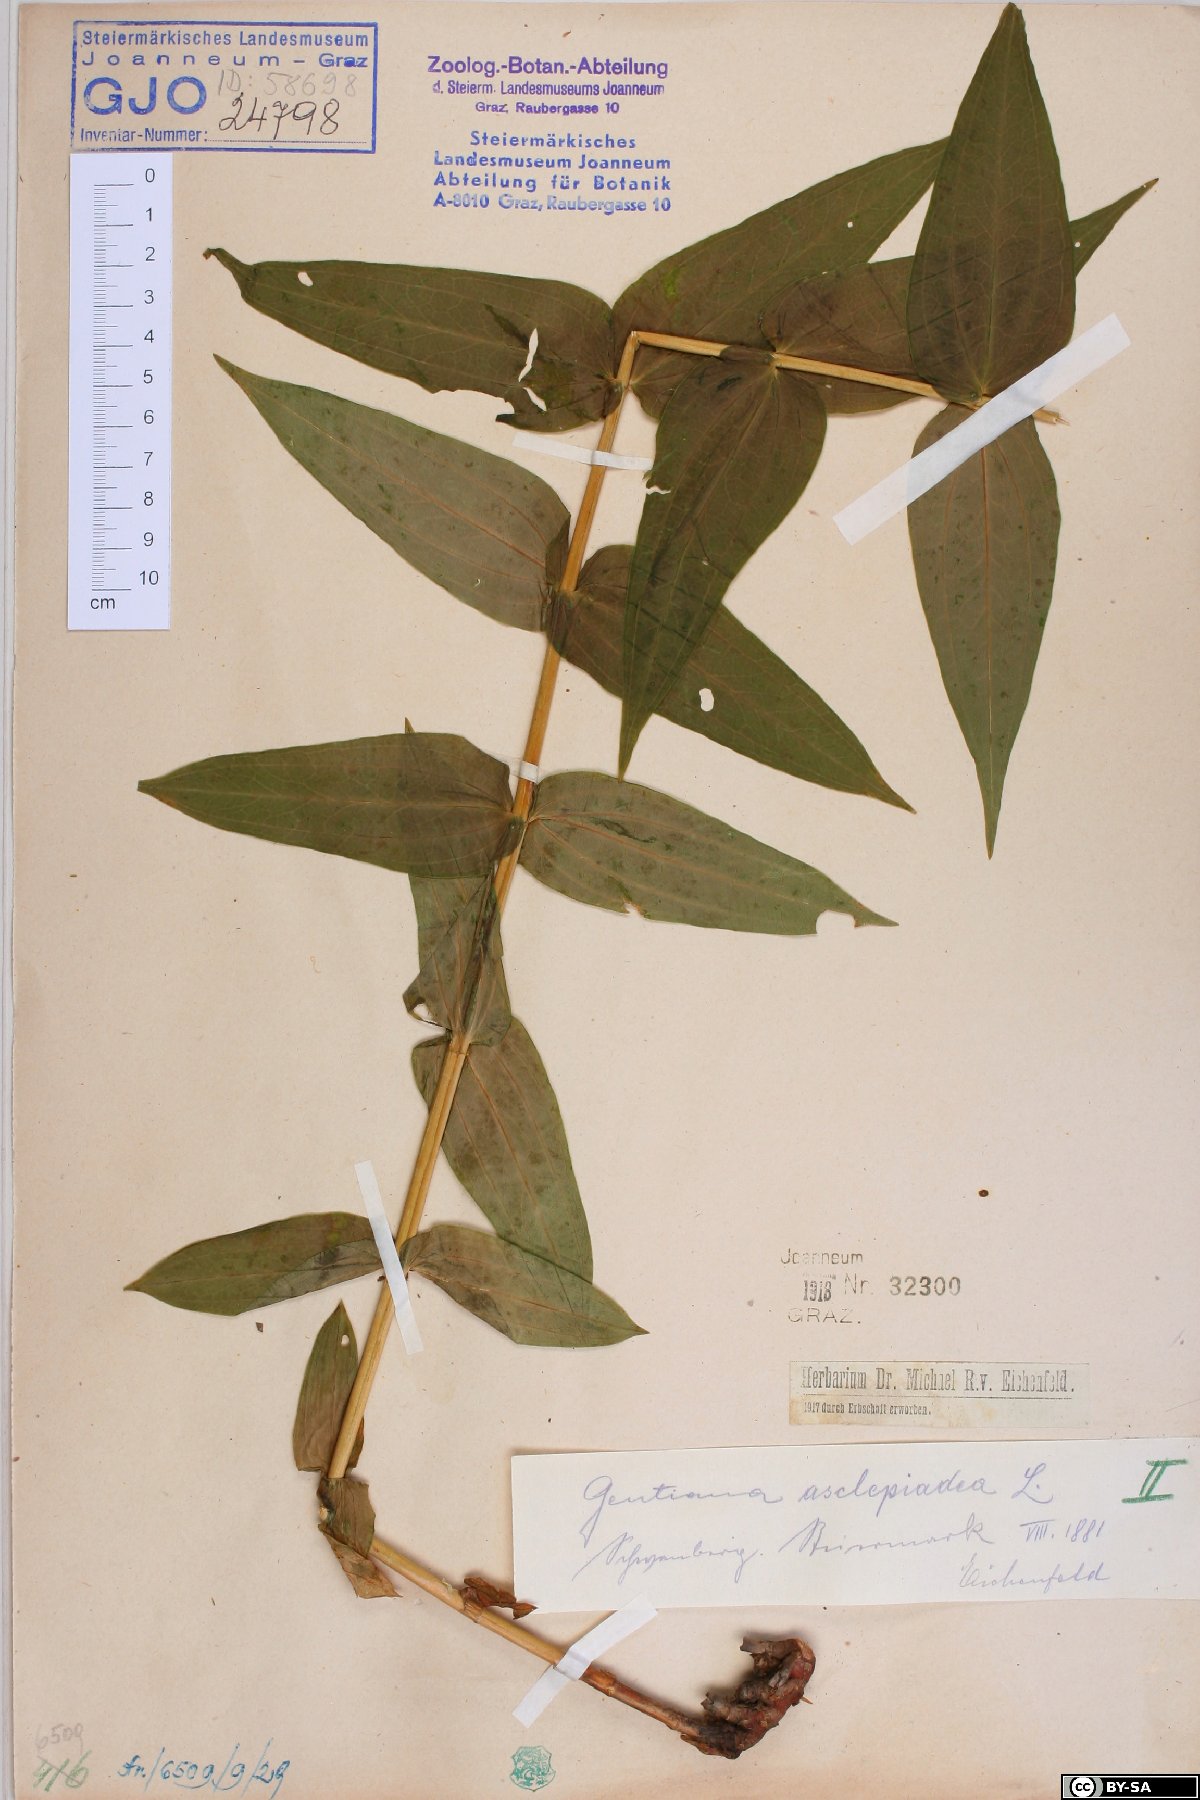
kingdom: Plantae
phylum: Tracheophyta
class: Magnoliopsida
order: Gentianales
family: Gentianaceae
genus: Gentiana
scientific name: Gentiana asclepiadea
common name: Willow gentian
